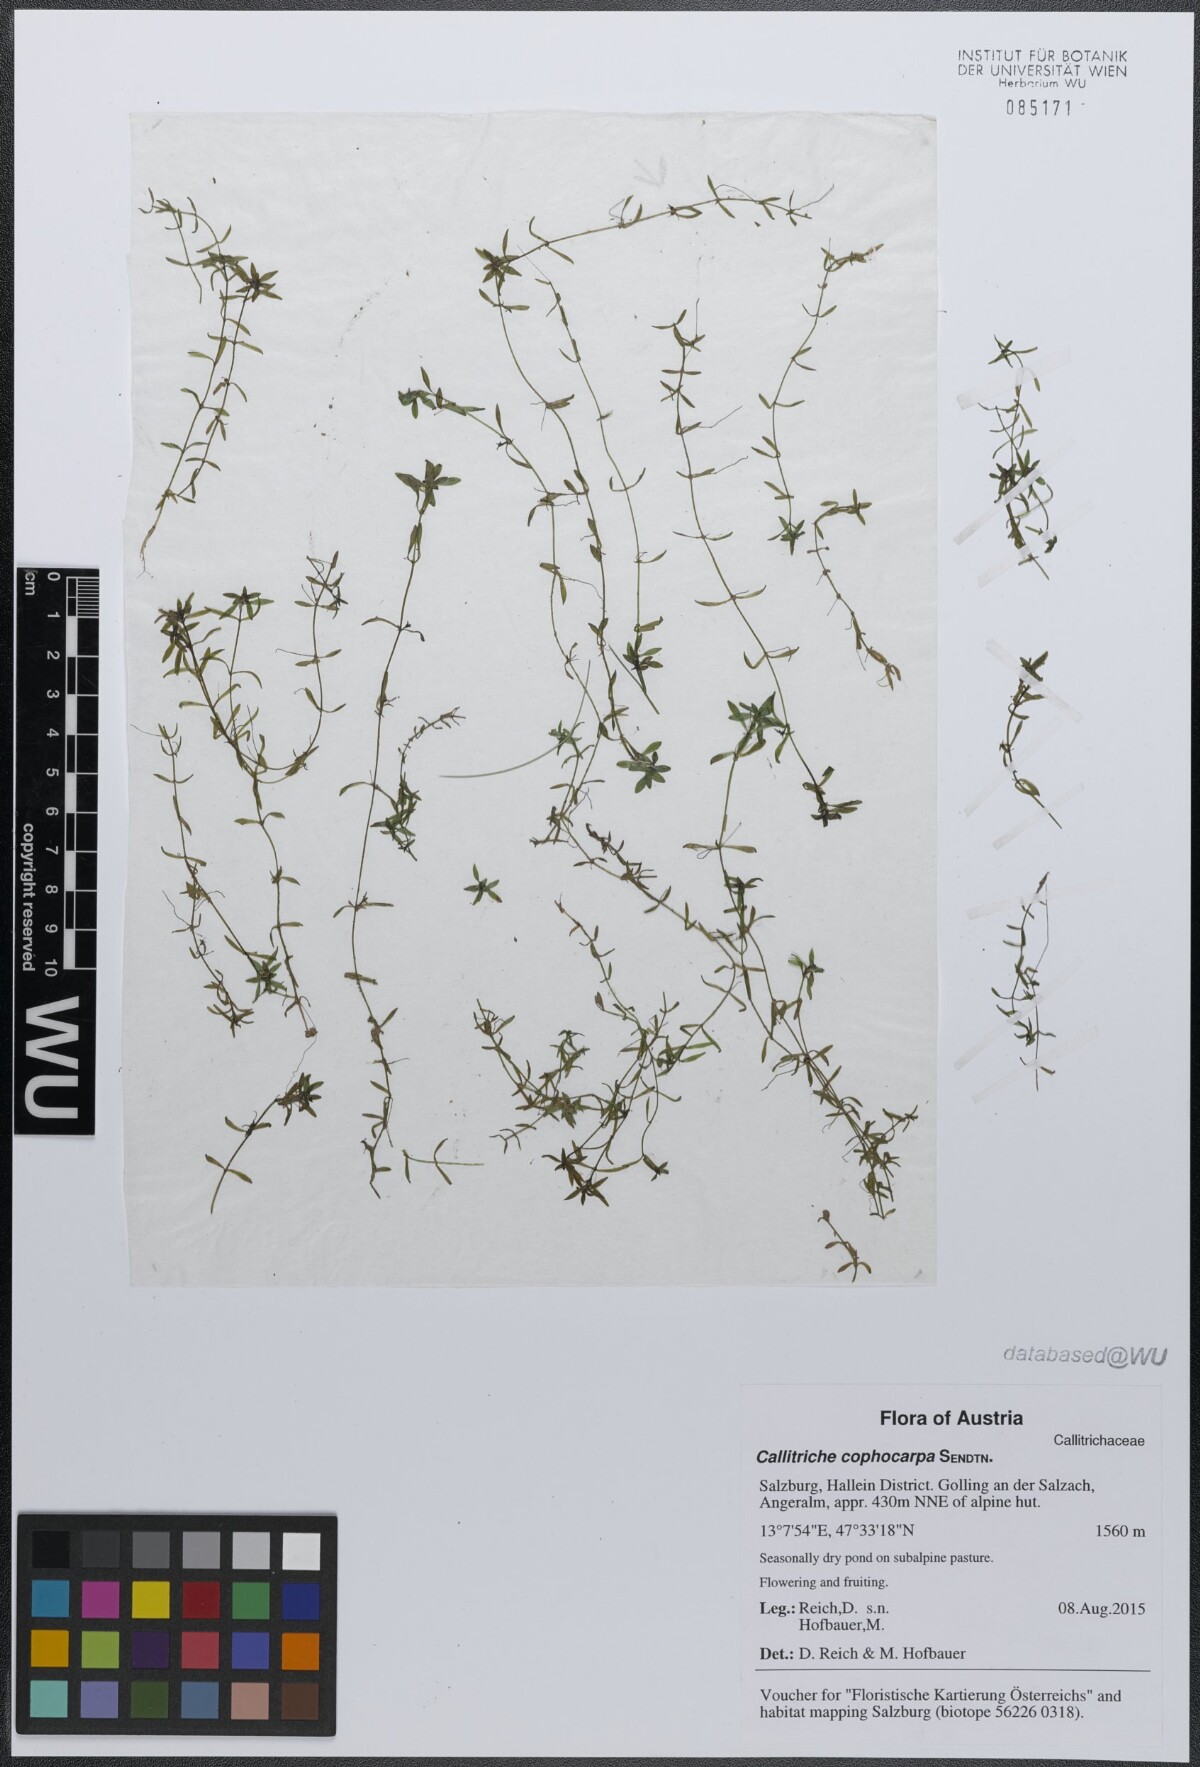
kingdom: Plantae
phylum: Tracheophyta
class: Magnoliopsida
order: Lamiales
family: Plantaginaceae
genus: Callitriche
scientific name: Callitriche cophocarpa
